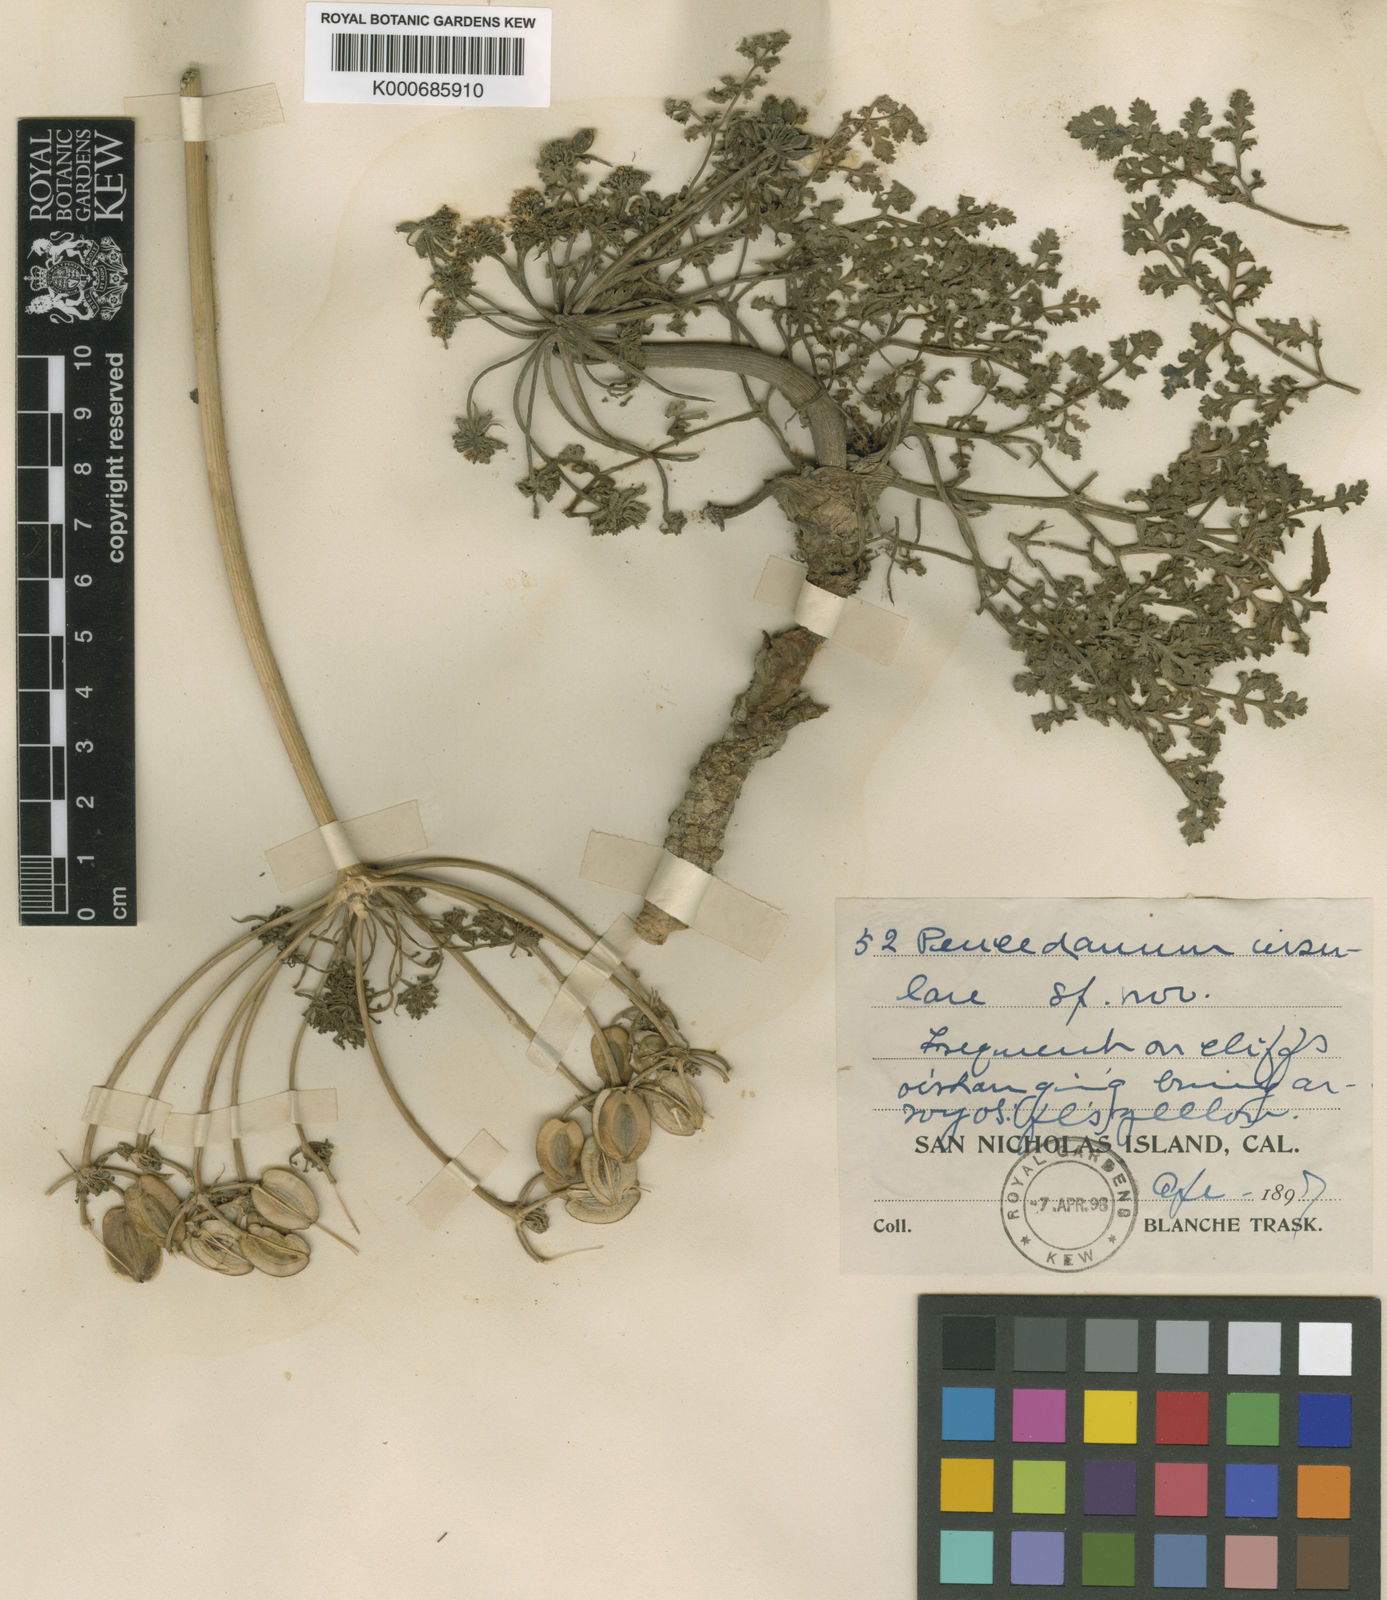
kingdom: Plantae
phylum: Tracheophyta
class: Magnoliopsida
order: Apiales
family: Apiaceae
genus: Lomatium
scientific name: Lomatium insulare
